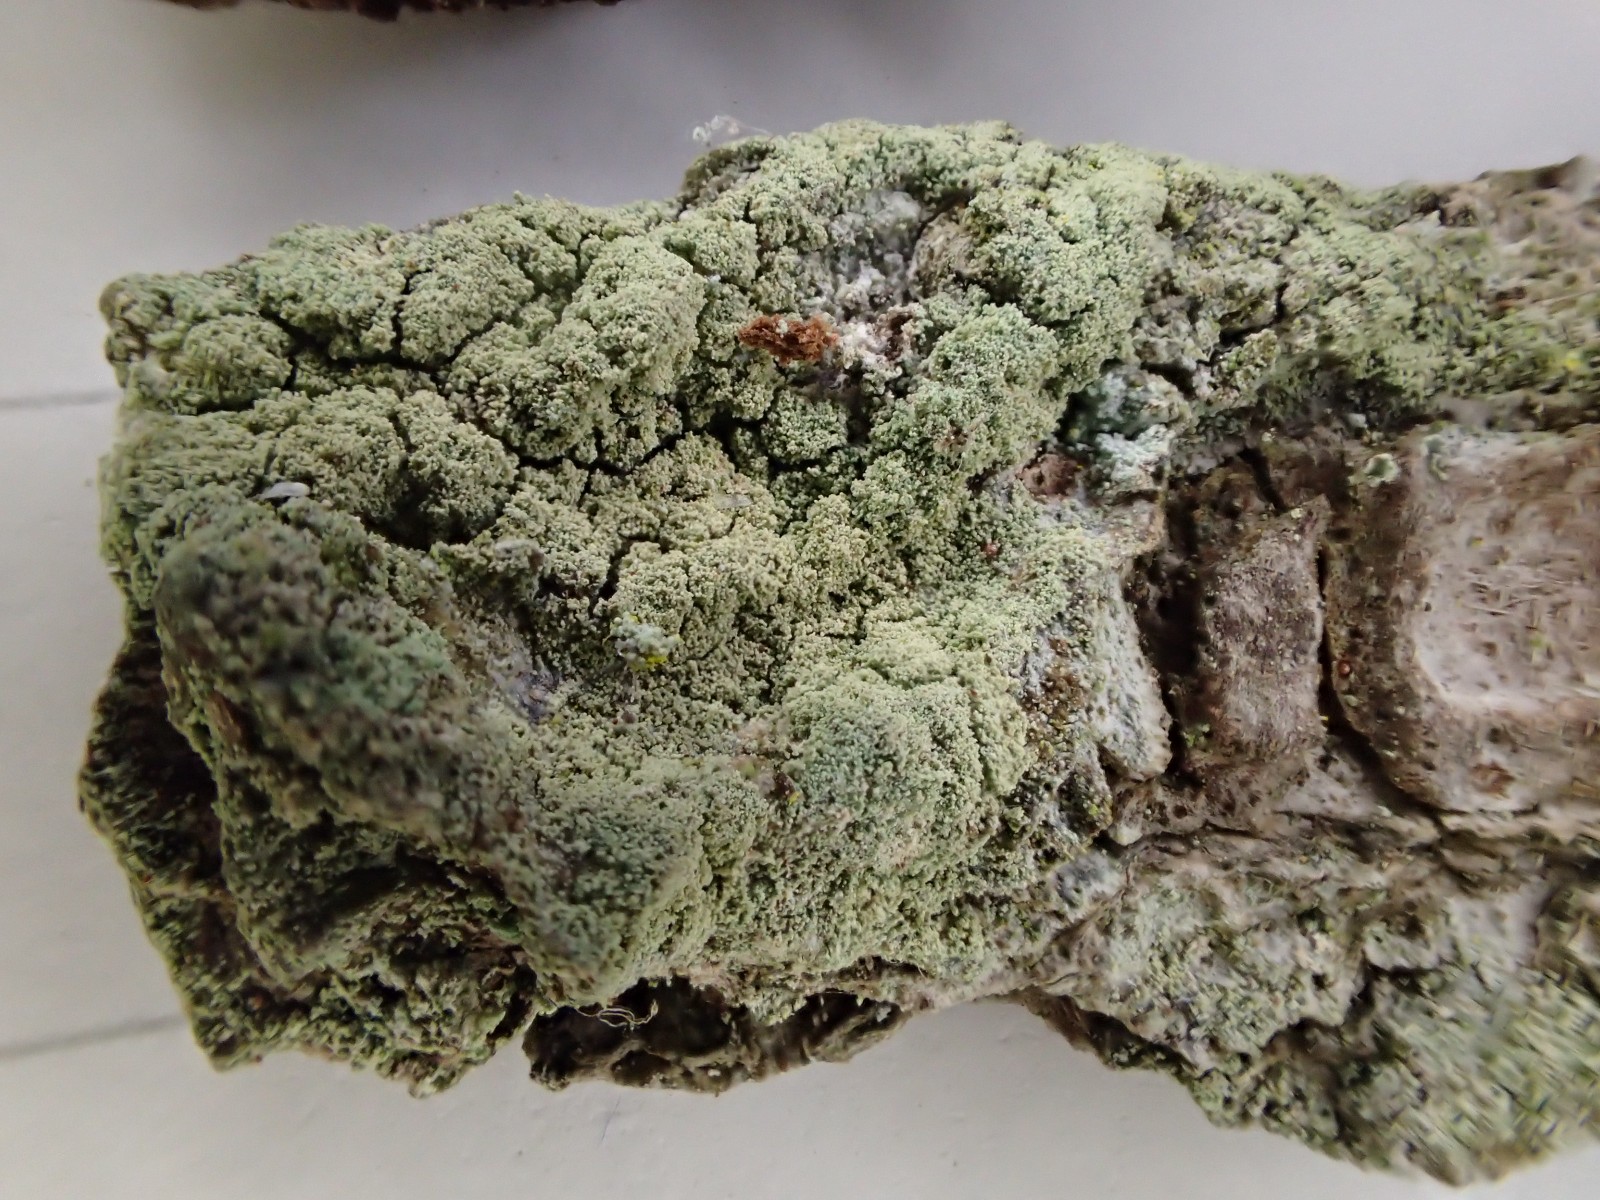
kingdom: Fungi
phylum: Ascomycota
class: Lecanoromycetes
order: Lecanorales
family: Lecanoraceae
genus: Lecanora
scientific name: Lecanora expallens
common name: bleggul kantskivelav
